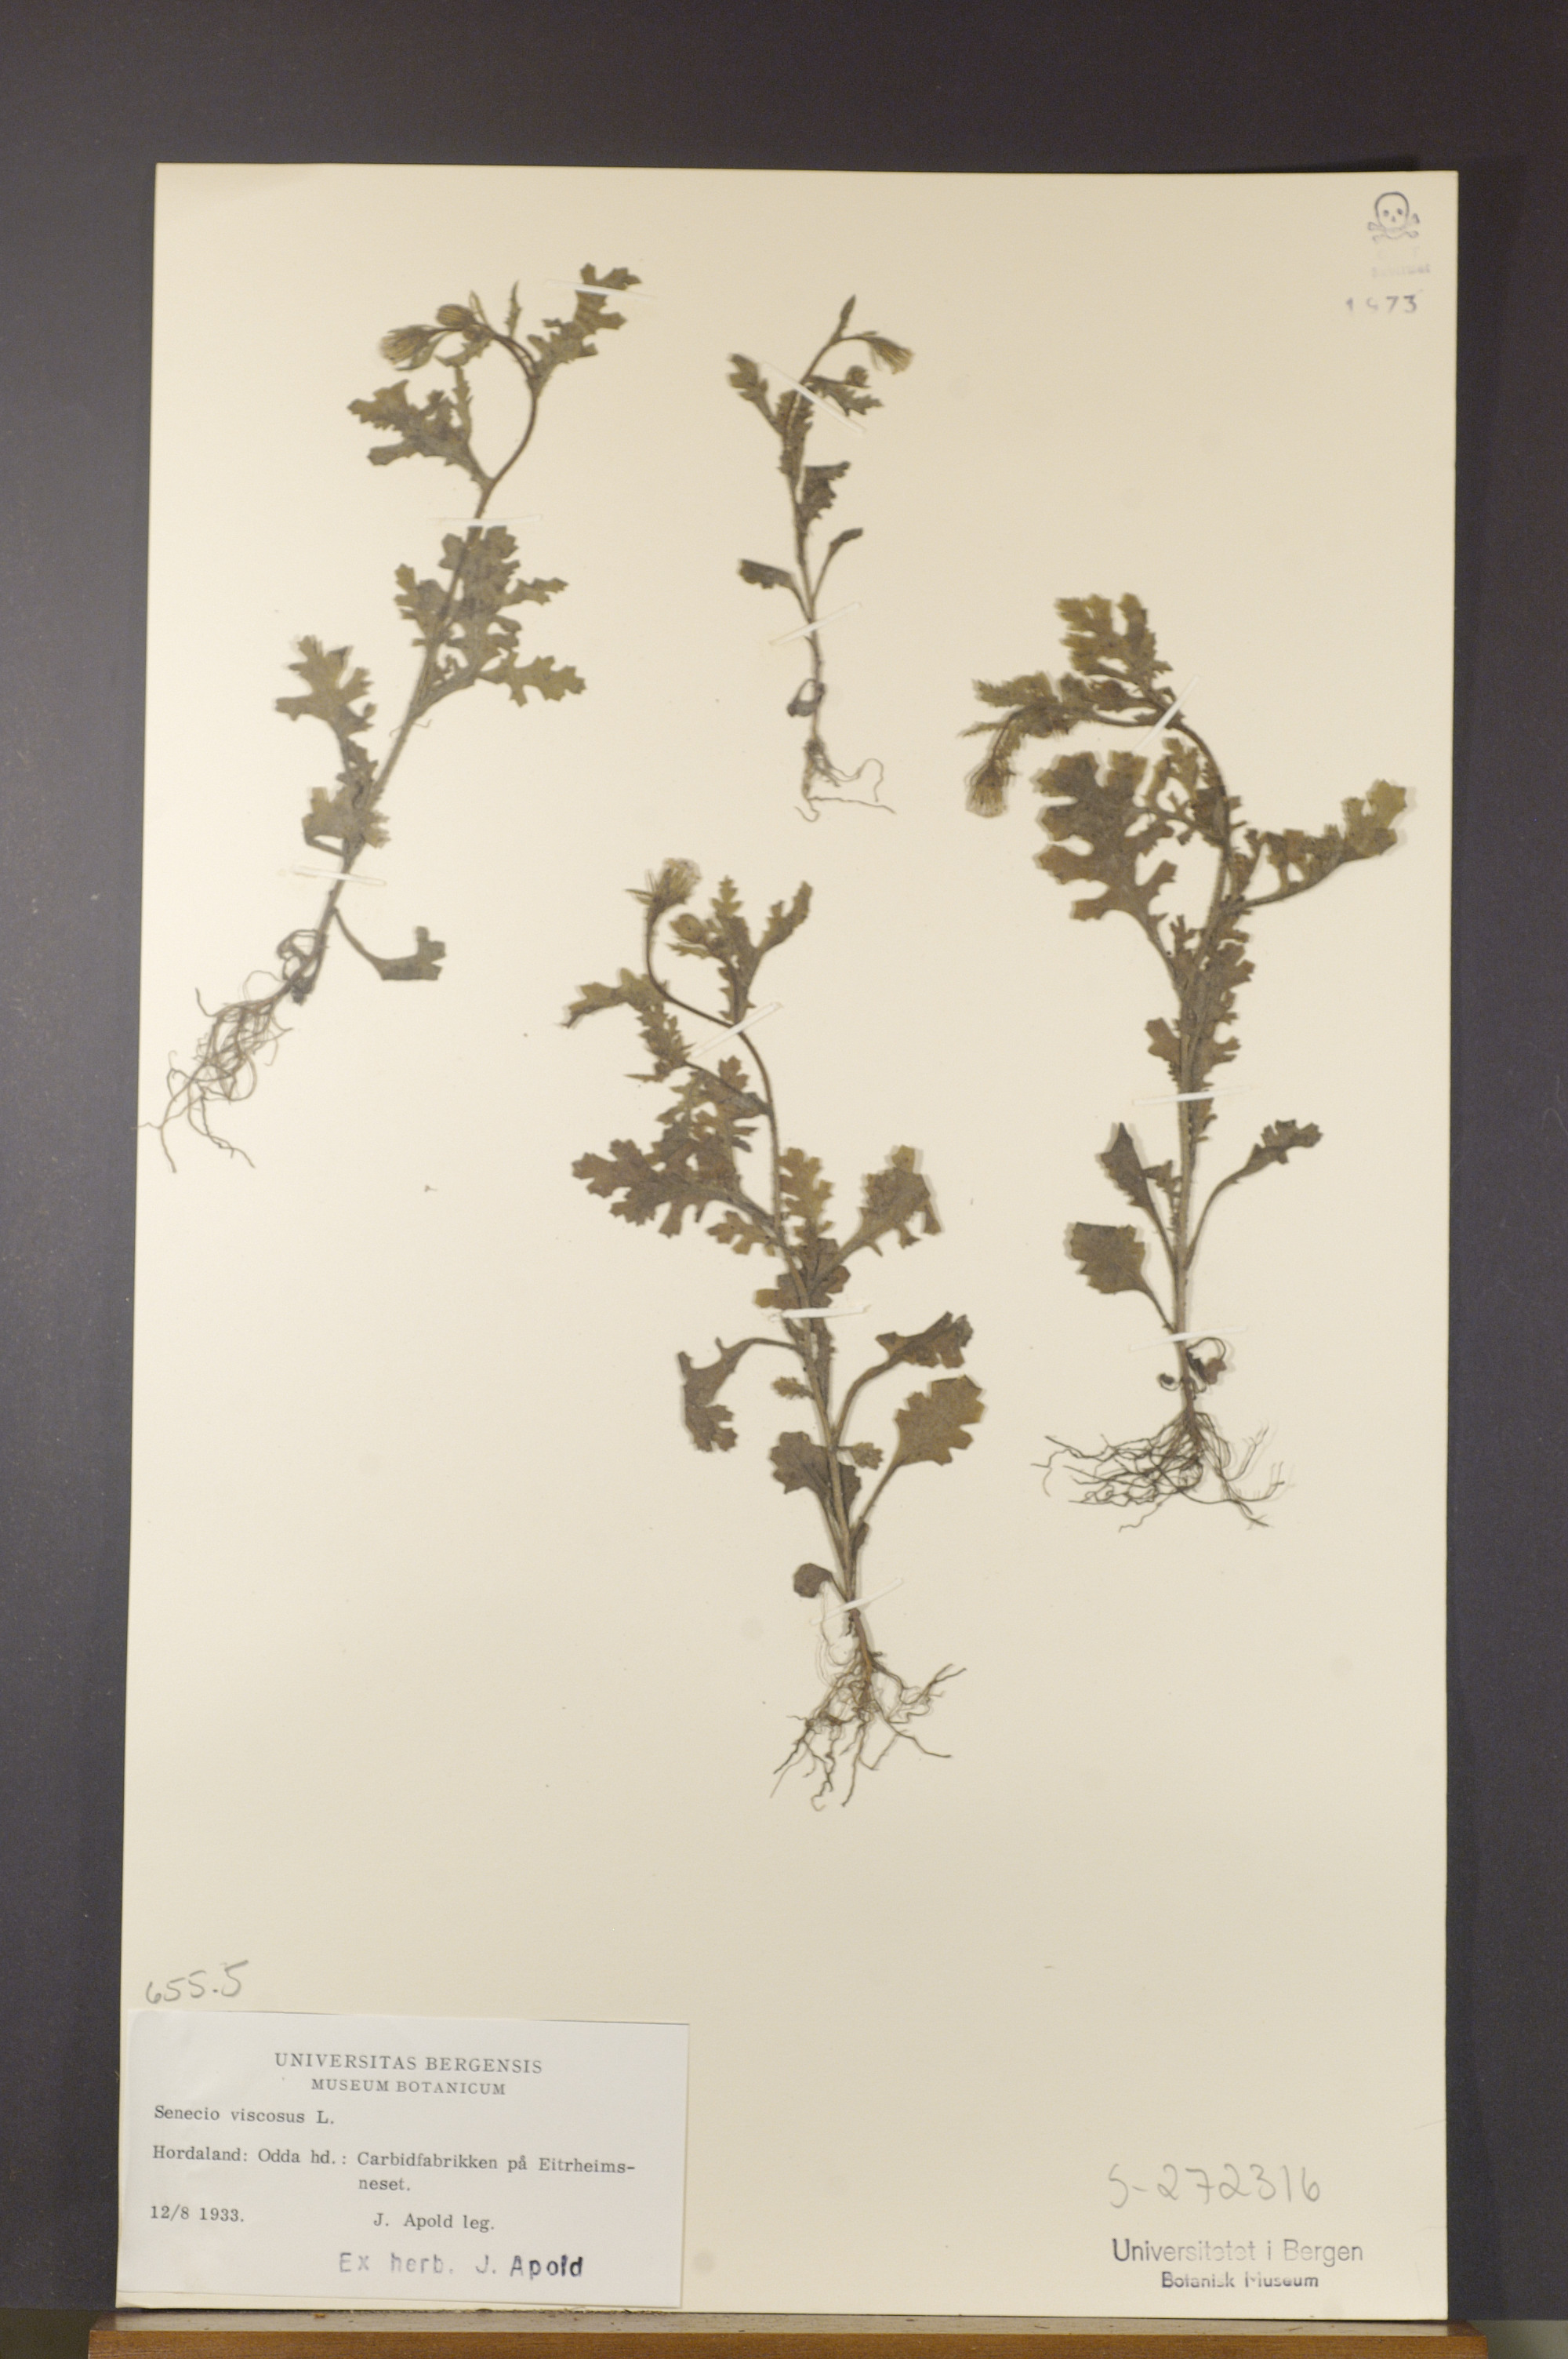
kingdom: Plantae
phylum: Tracheophyta
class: Magnoliopsida
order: Asterales
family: Asteraceae
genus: Senecio
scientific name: Senecio viscosus
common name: Sticky groundsel
